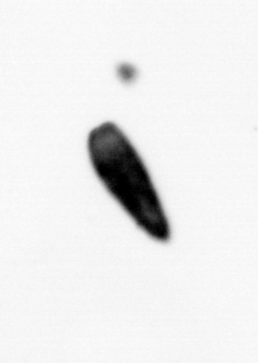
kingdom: Animalia
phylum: Arthropoda
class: Maxillopoda
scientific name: Maxillopoda
